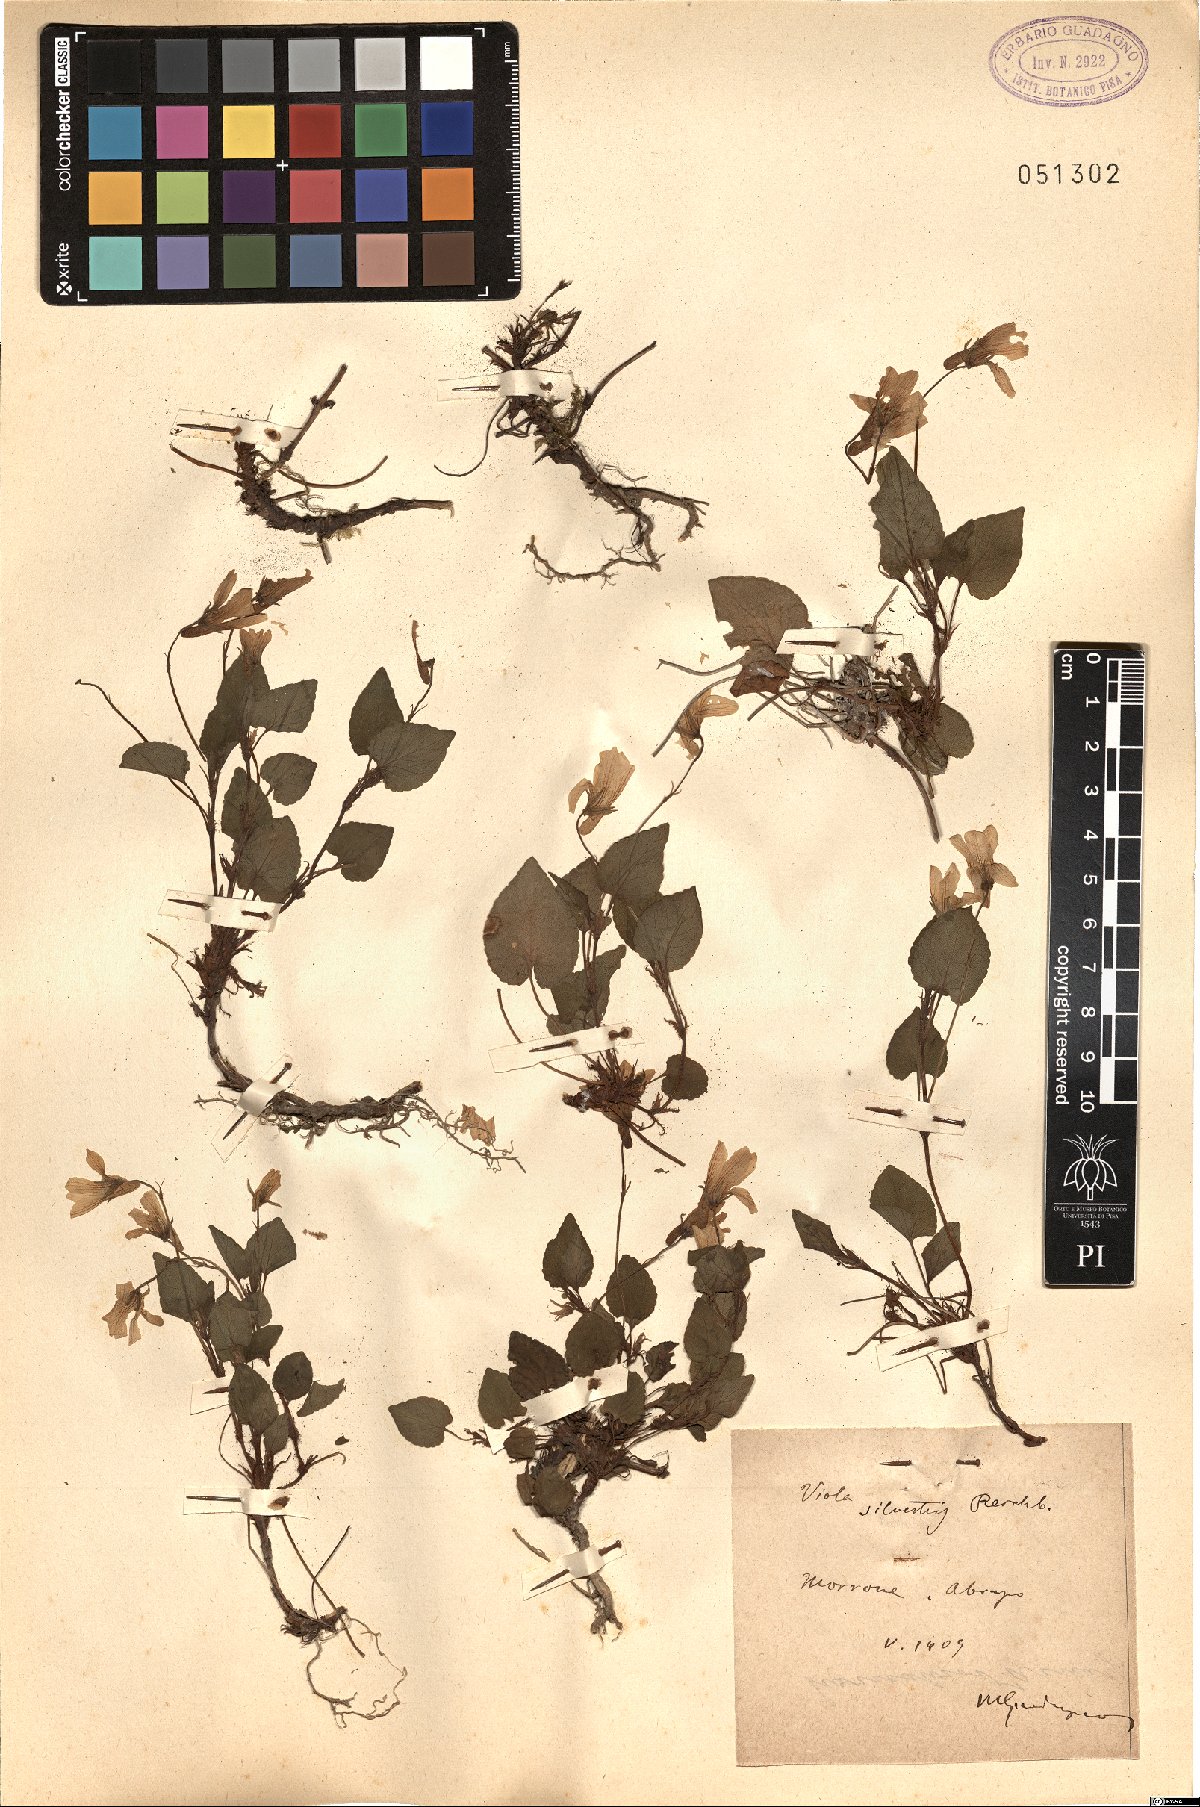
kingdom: Plantae
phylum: Tracheophyta
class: Magnoliopsida
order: Malpighiales
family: Violaceae
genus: Viola
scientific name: Viola canina
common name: Heath dog-violet
